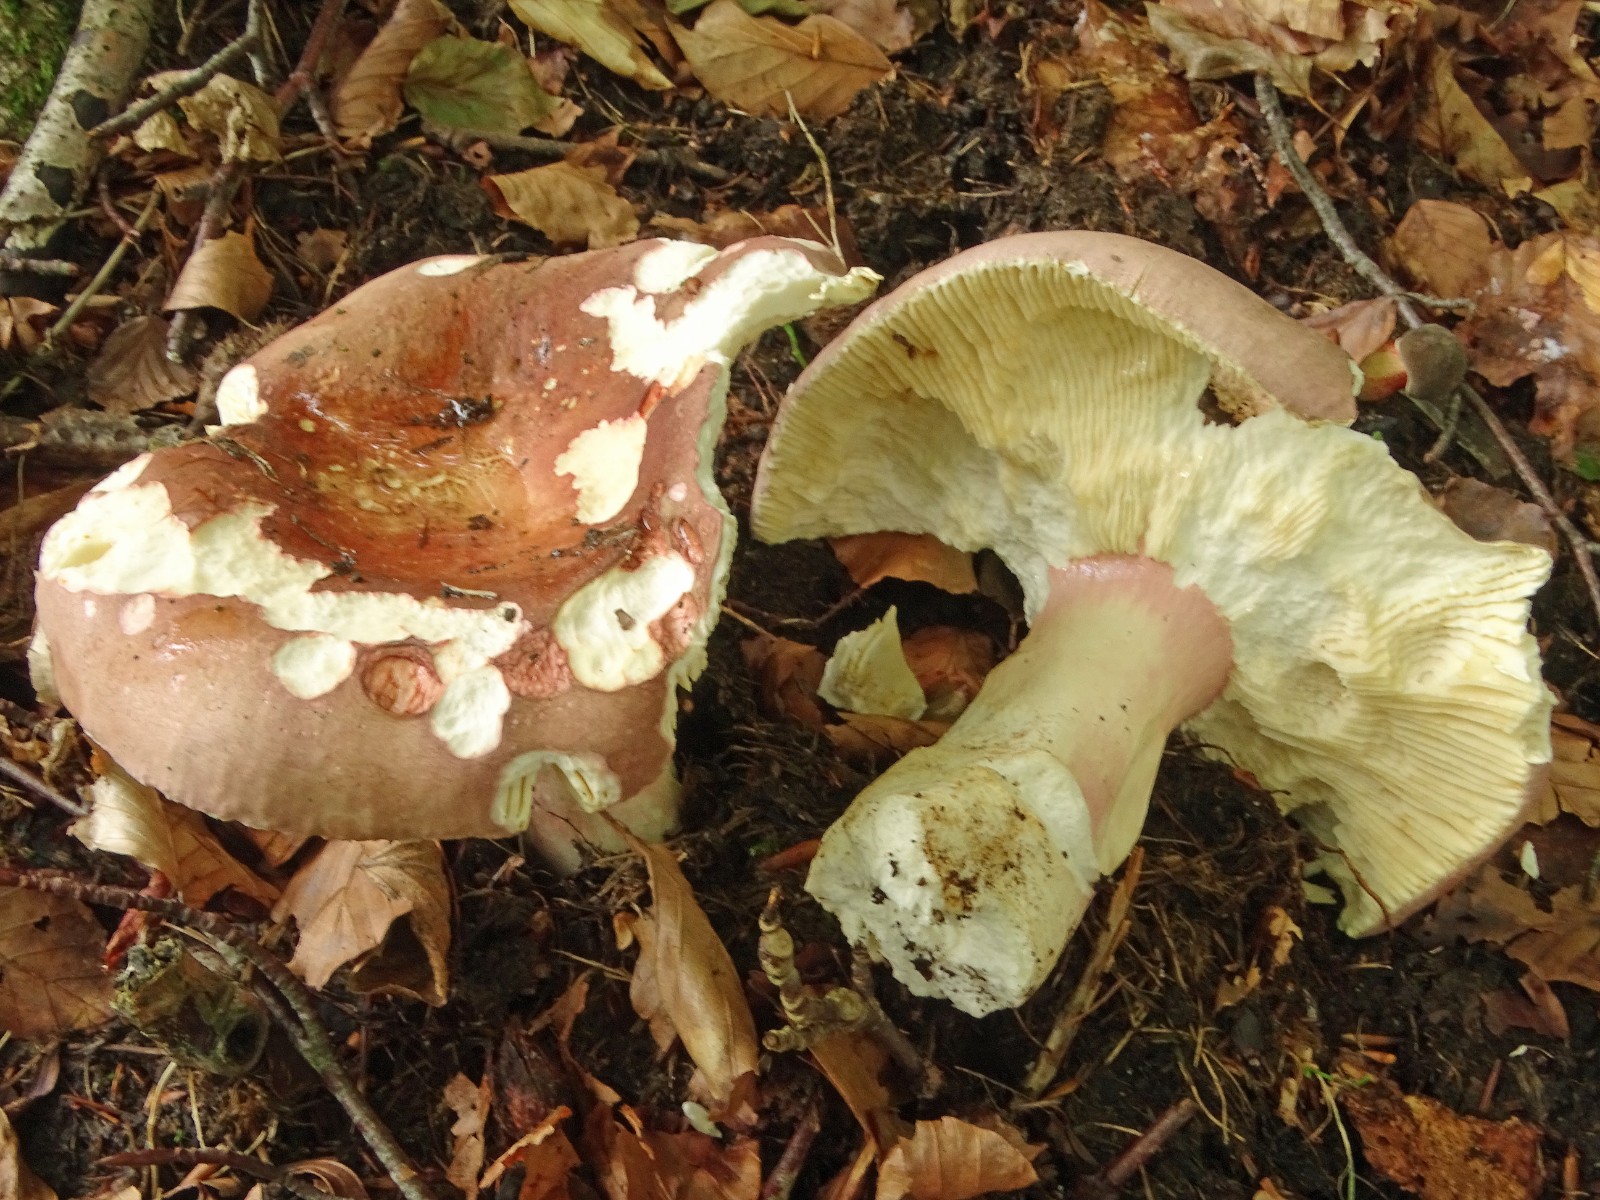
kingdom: Fungi
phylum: Basidiomycota
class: Agaricomycetes
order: Russulales
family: Russulaceae
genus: Russula
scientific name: Russula olivacea
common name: stor skørhat
